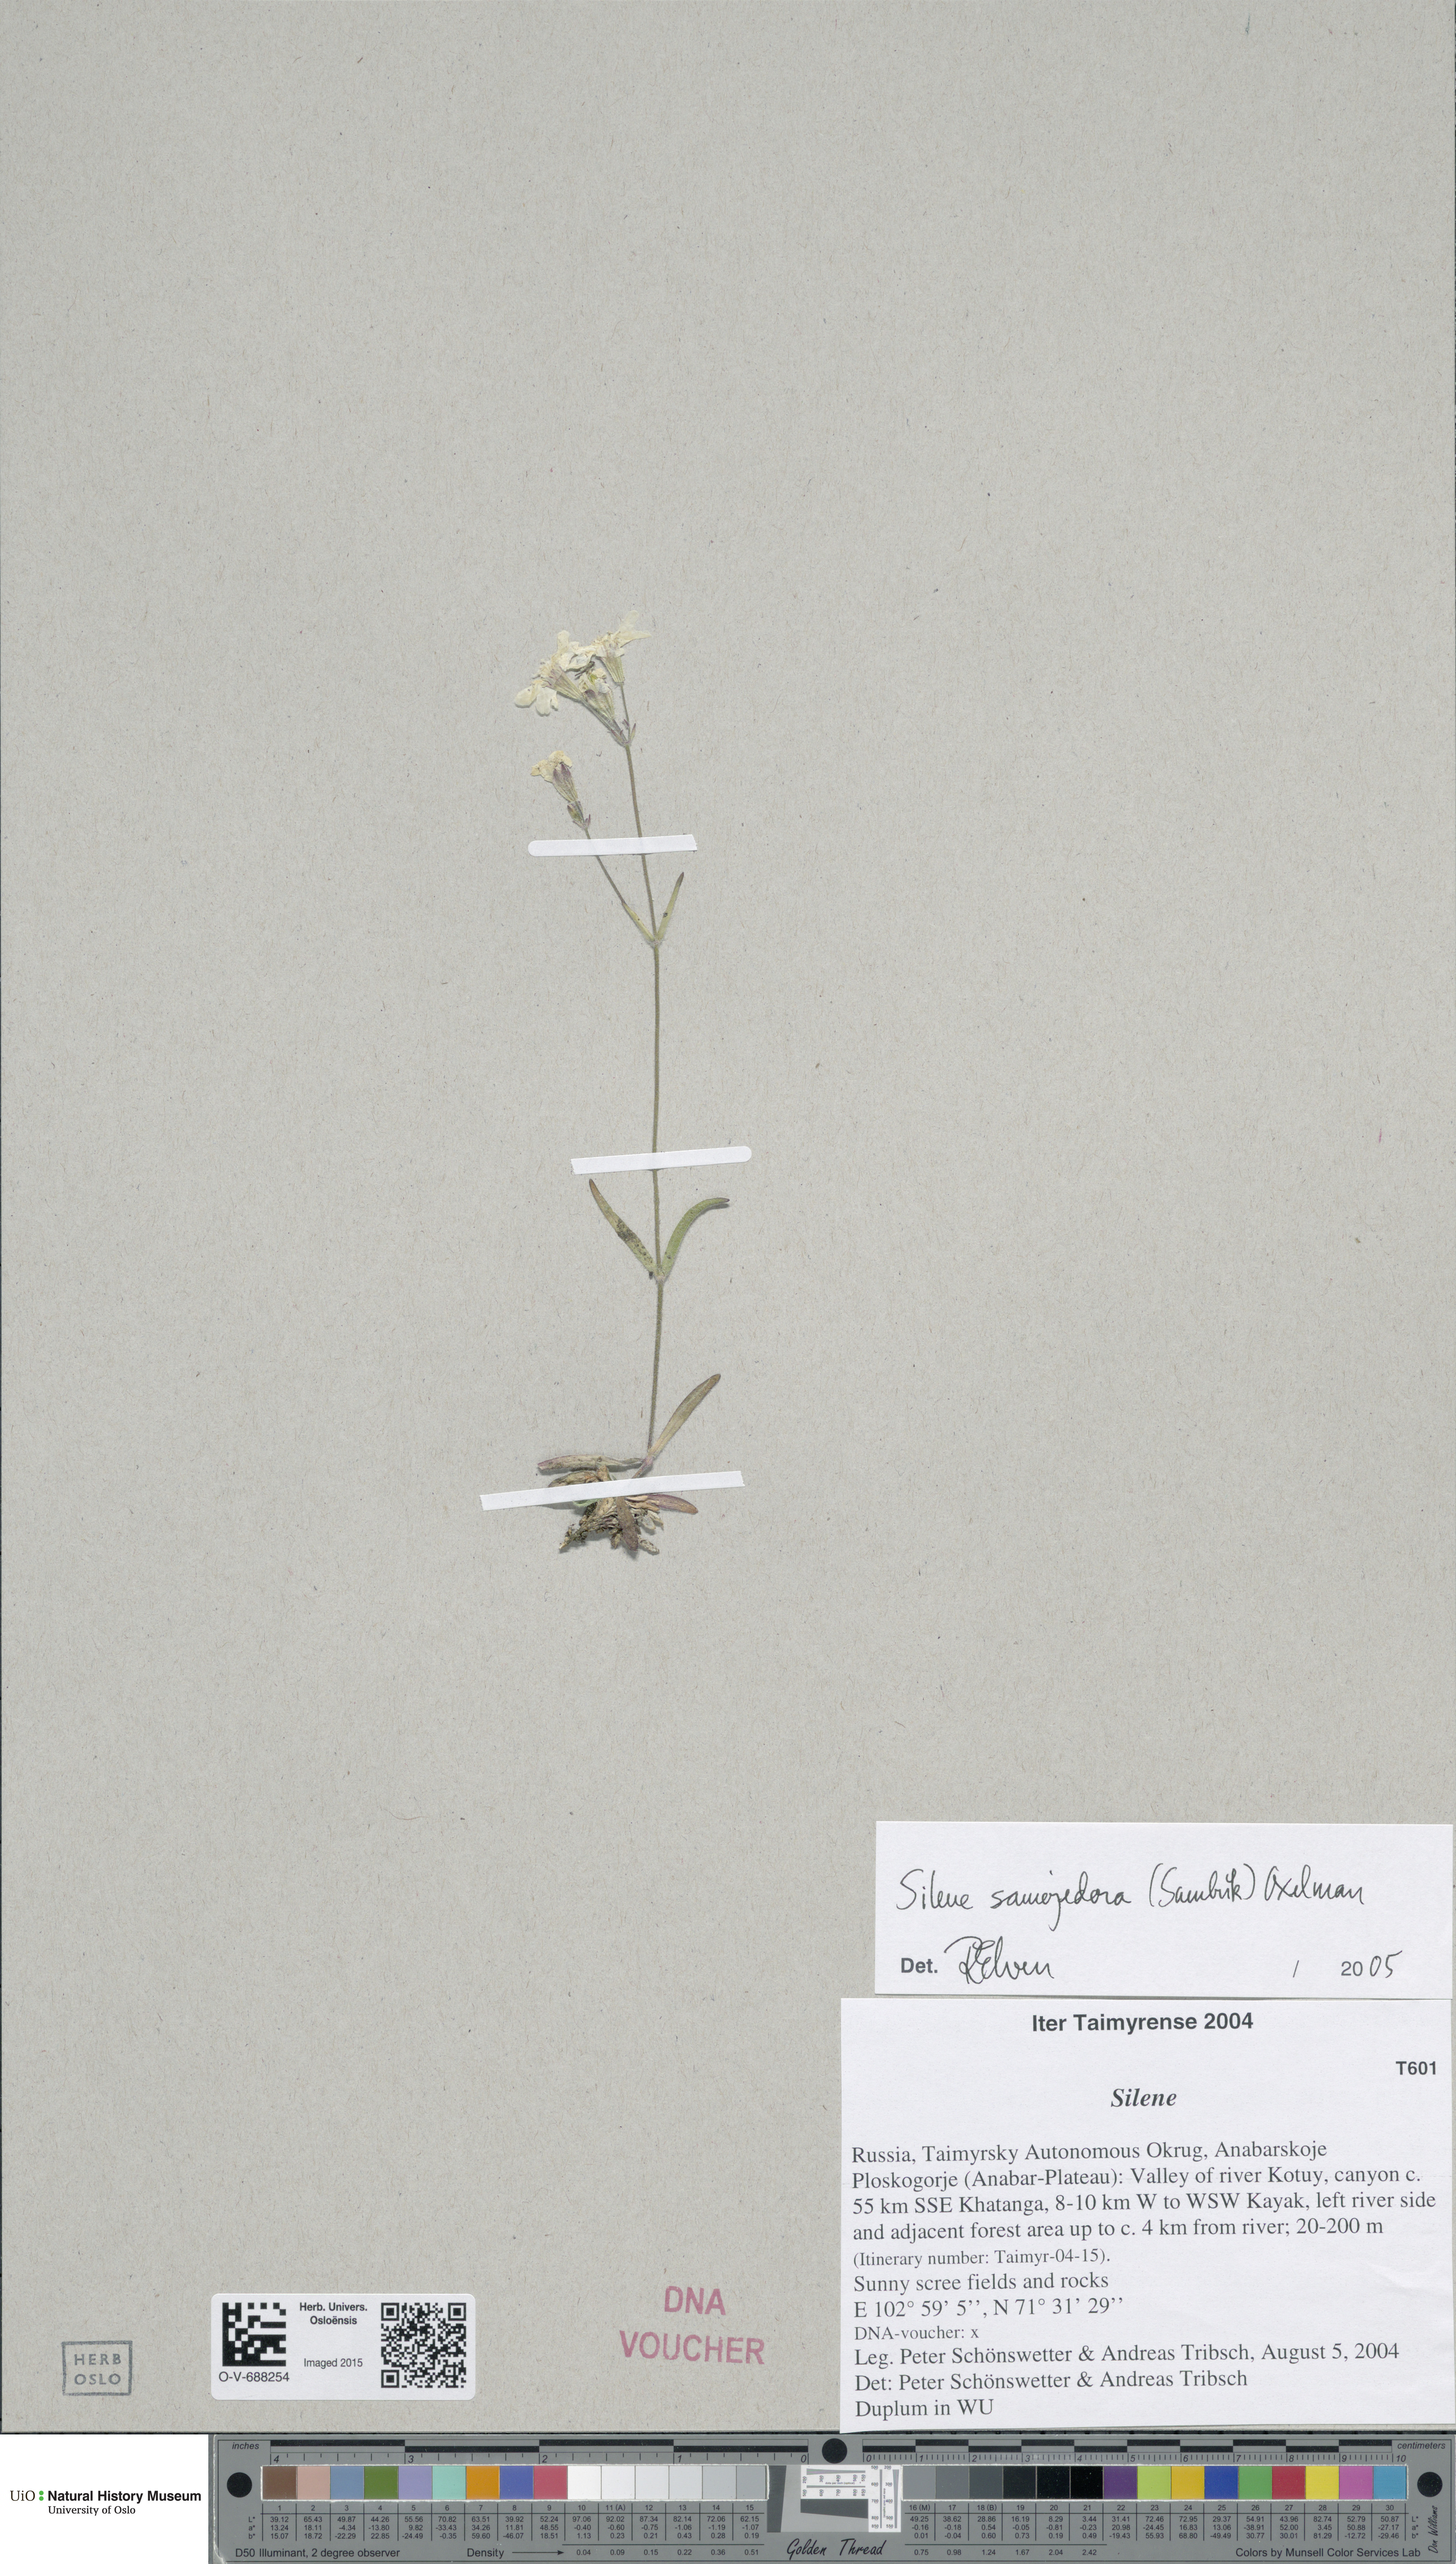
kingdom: Plantae
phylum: Tracheophyta
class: Magnoliopsida
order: Caryophyllales
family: Caryophyllaceae
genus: Silene
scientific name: Silene samojedorum
